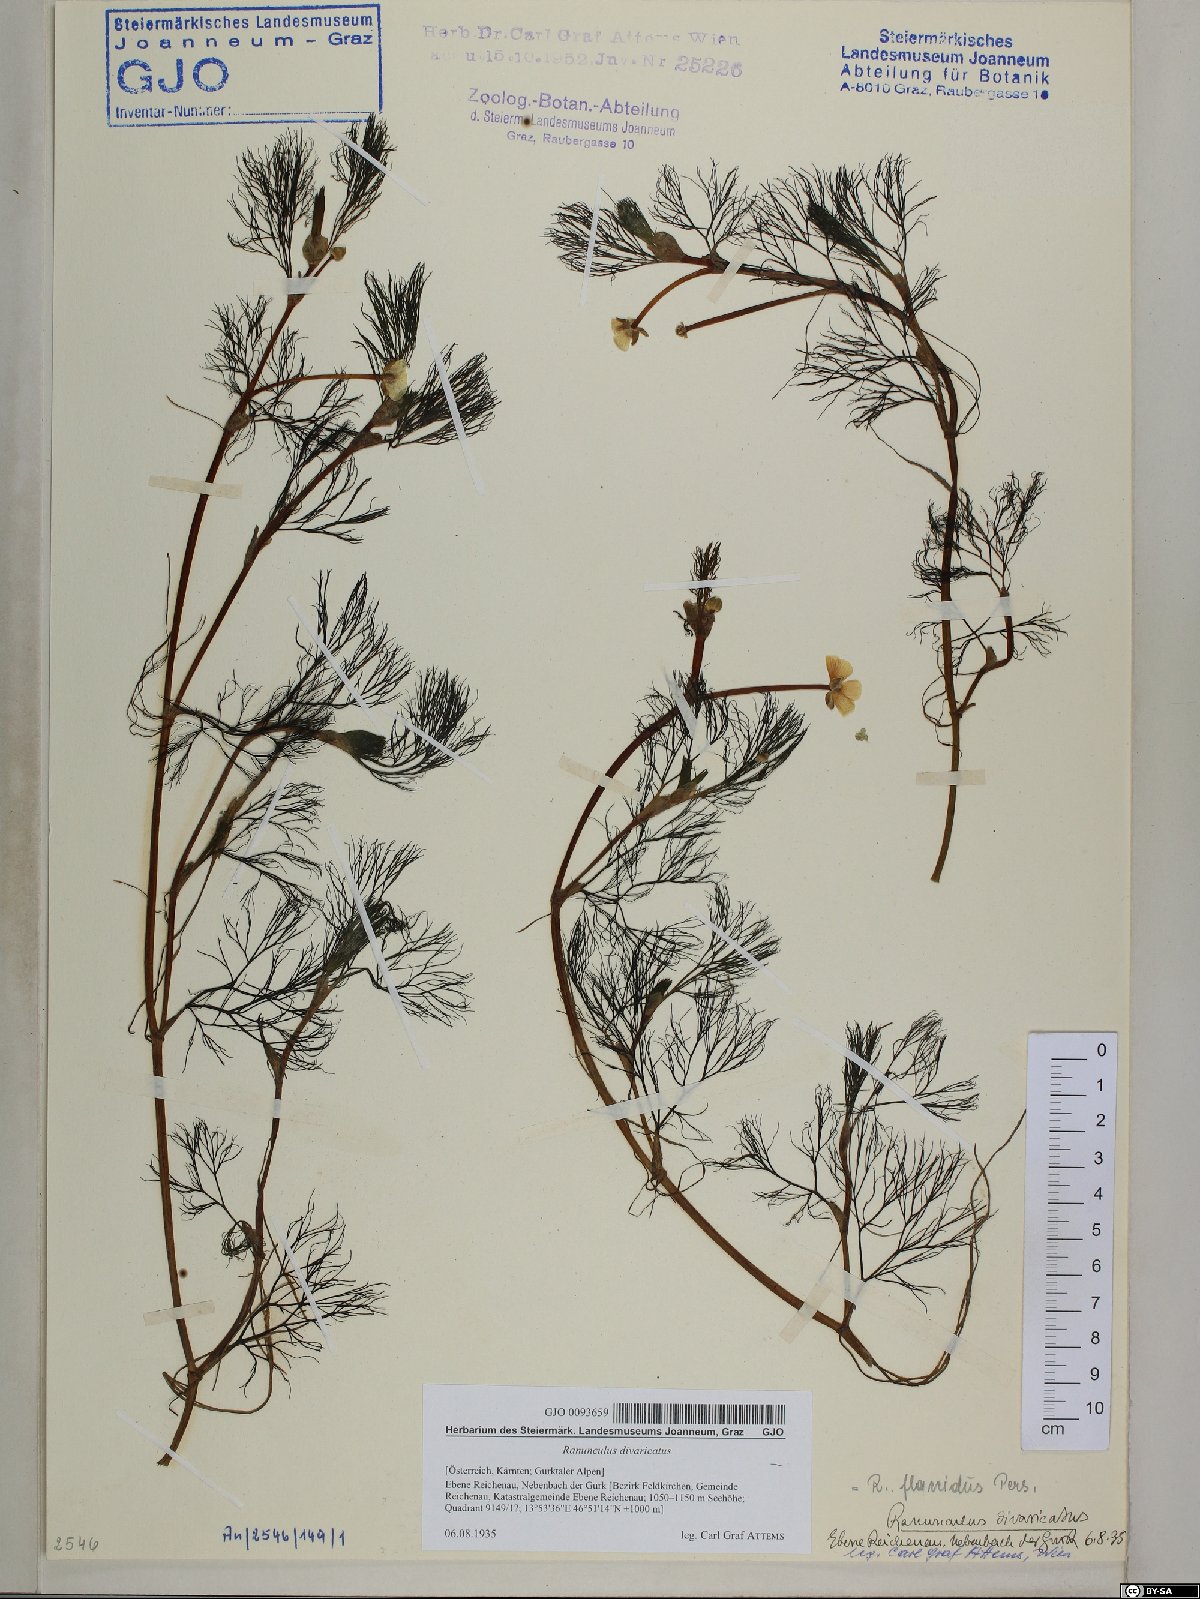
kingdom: Plantae
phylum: Tracheophyta
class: Magnoliopsida
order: Ranunculales
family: Ranunculaceae
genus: Ranunculus
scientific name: Ranunculus trichophyllus
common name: Thread-leaved water-crowfoot
